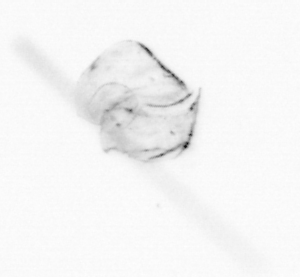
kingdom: Chromista
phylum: Ochrophyta
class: Bacillariophyceae
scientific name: Bacillariophyceae
